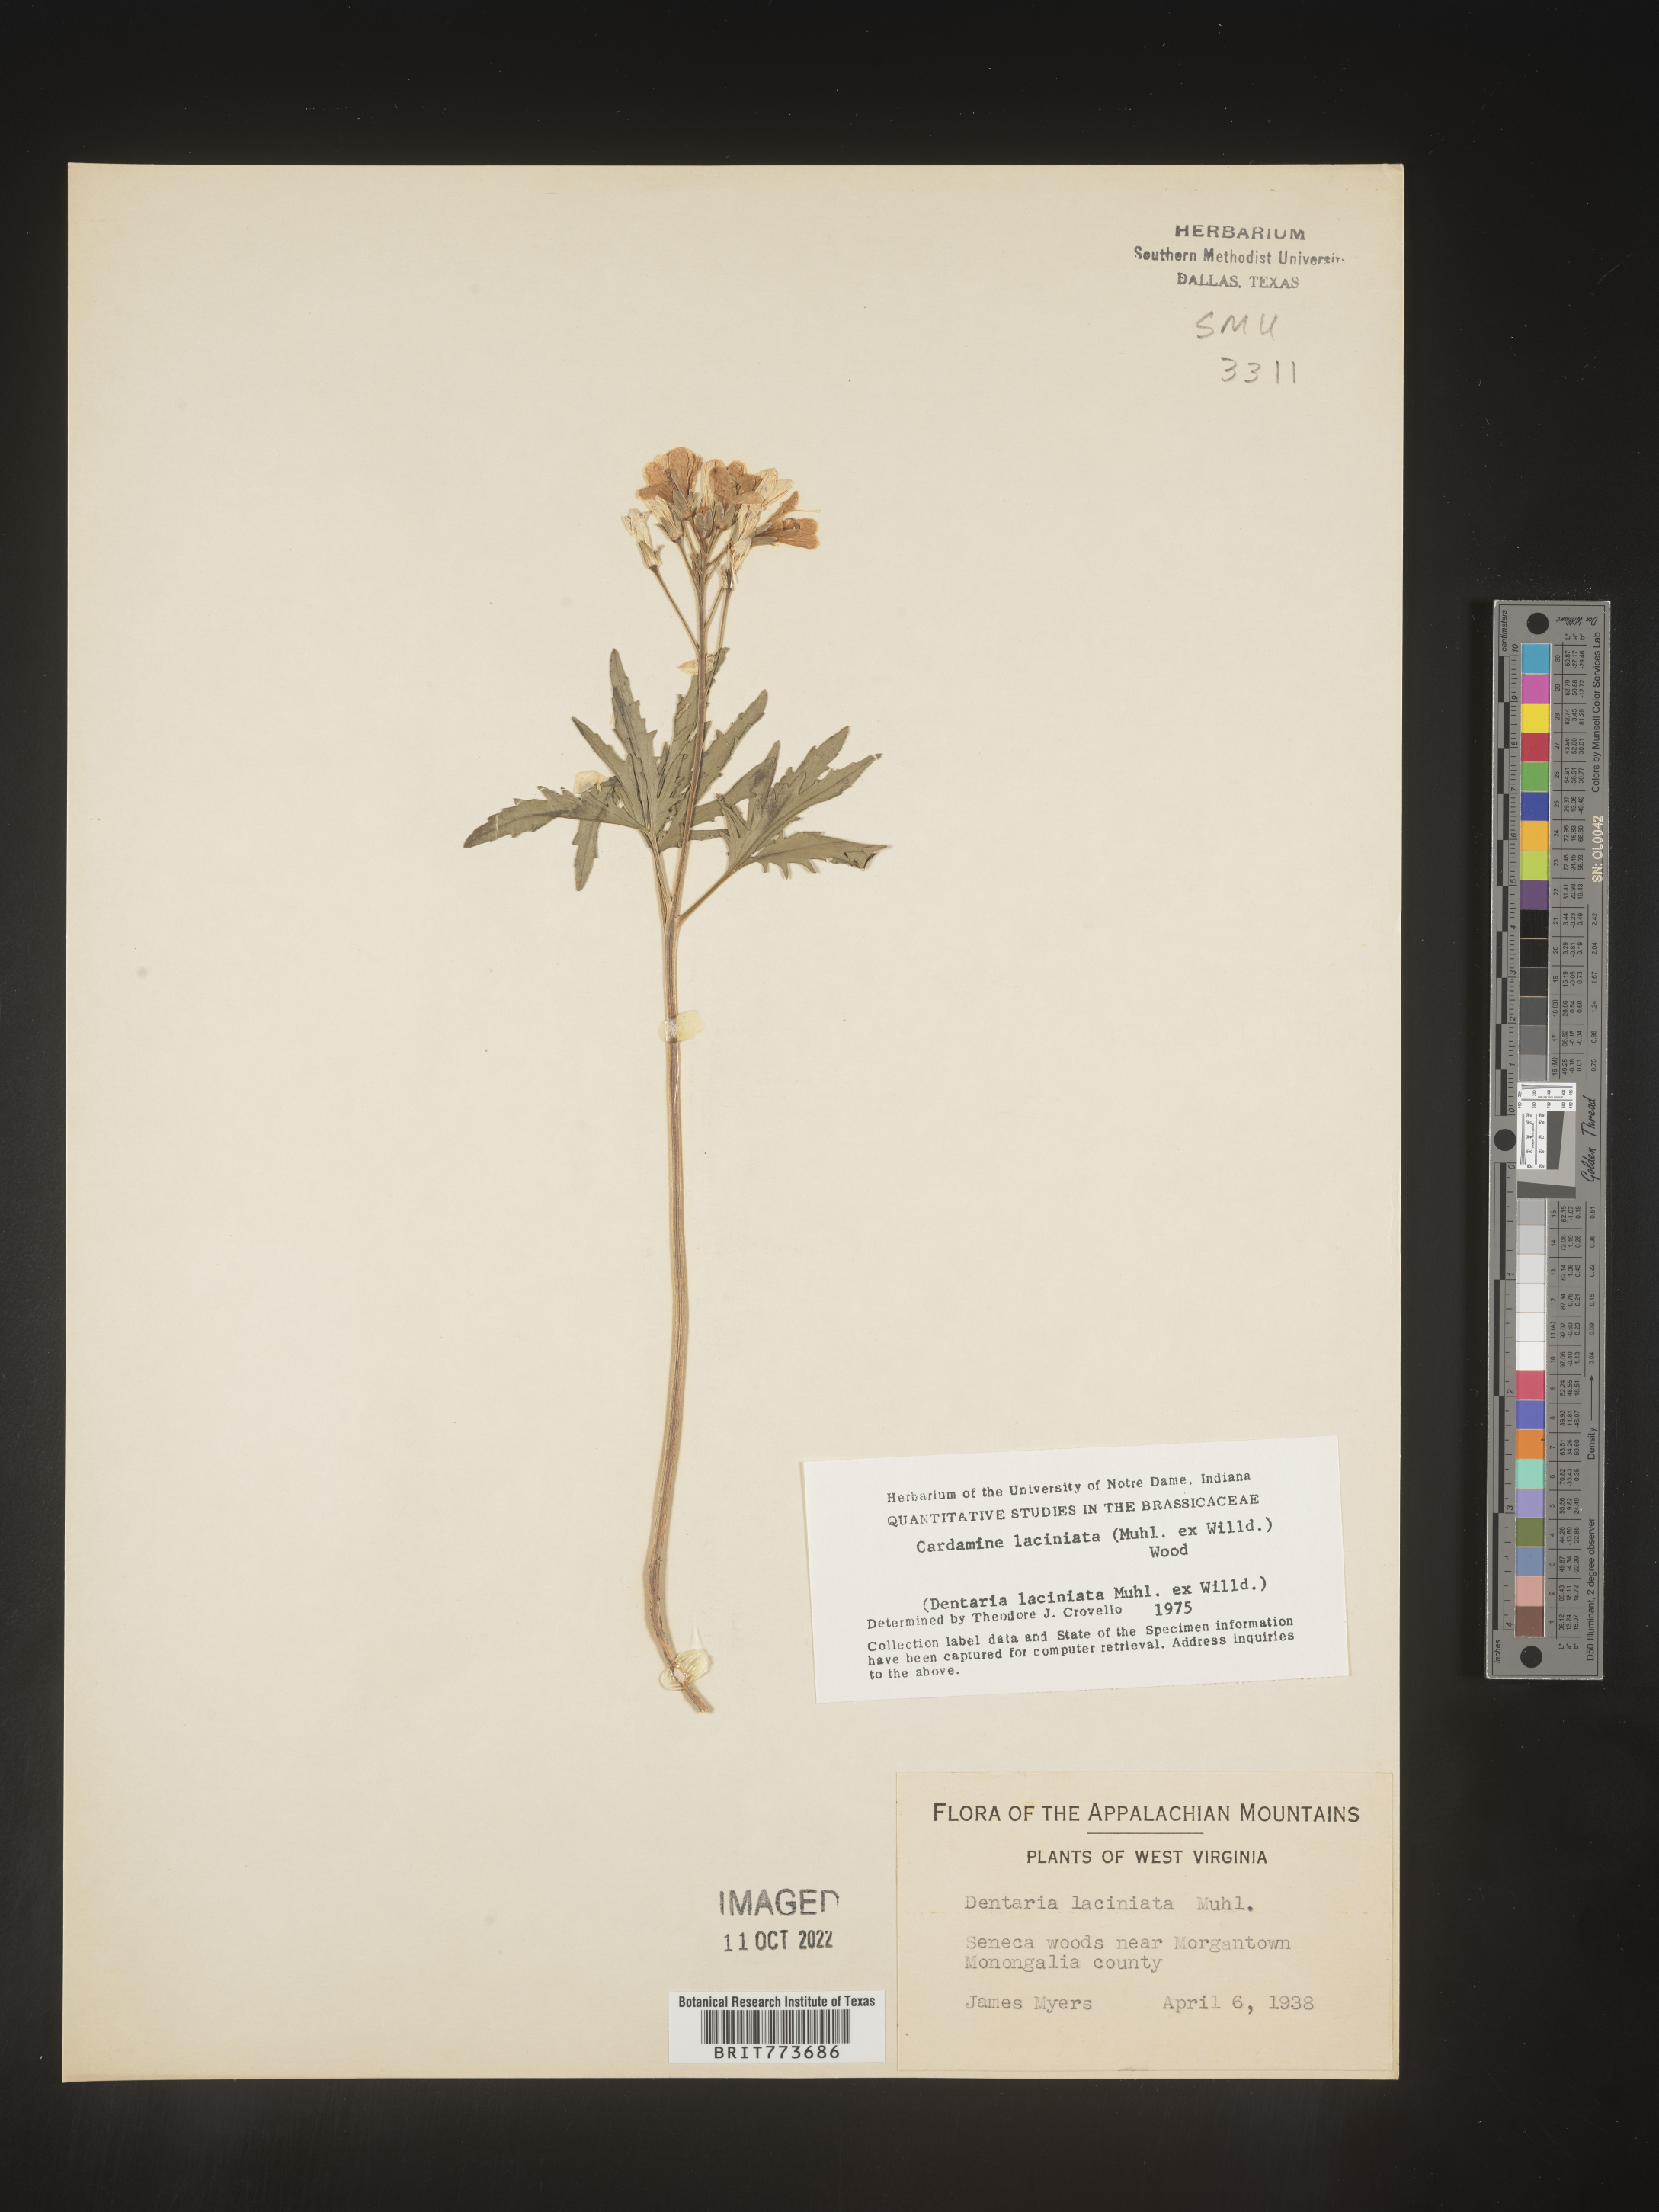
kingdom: Plantae
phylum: Tracheophyta
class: Magnoliopsida
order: Brassicales
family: Brassicaceae
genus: Rorippa
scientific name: Rorippa laciniata
